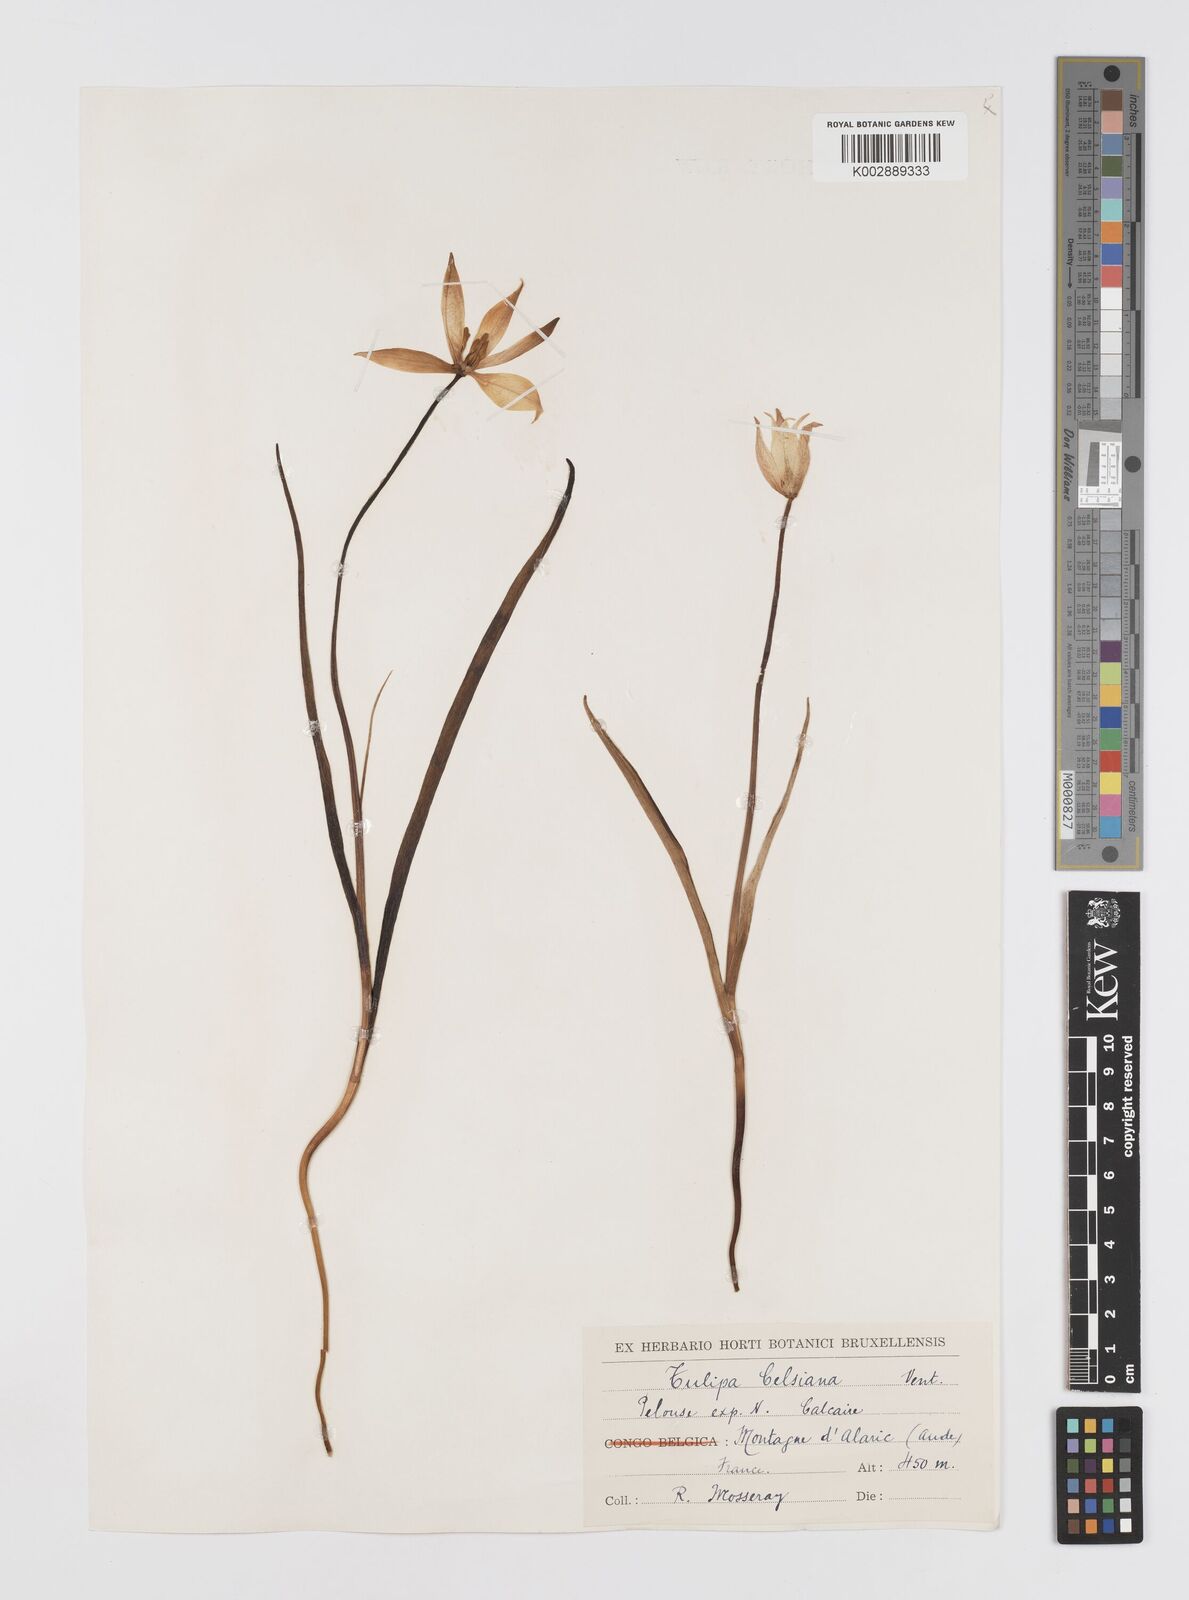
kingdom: Plantae
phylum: Tracheophyta
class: Liliopsida
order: Liliales
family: Liliaceae
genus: Tulipa
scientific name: Tulipa sylvestris
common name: Wild tulip
